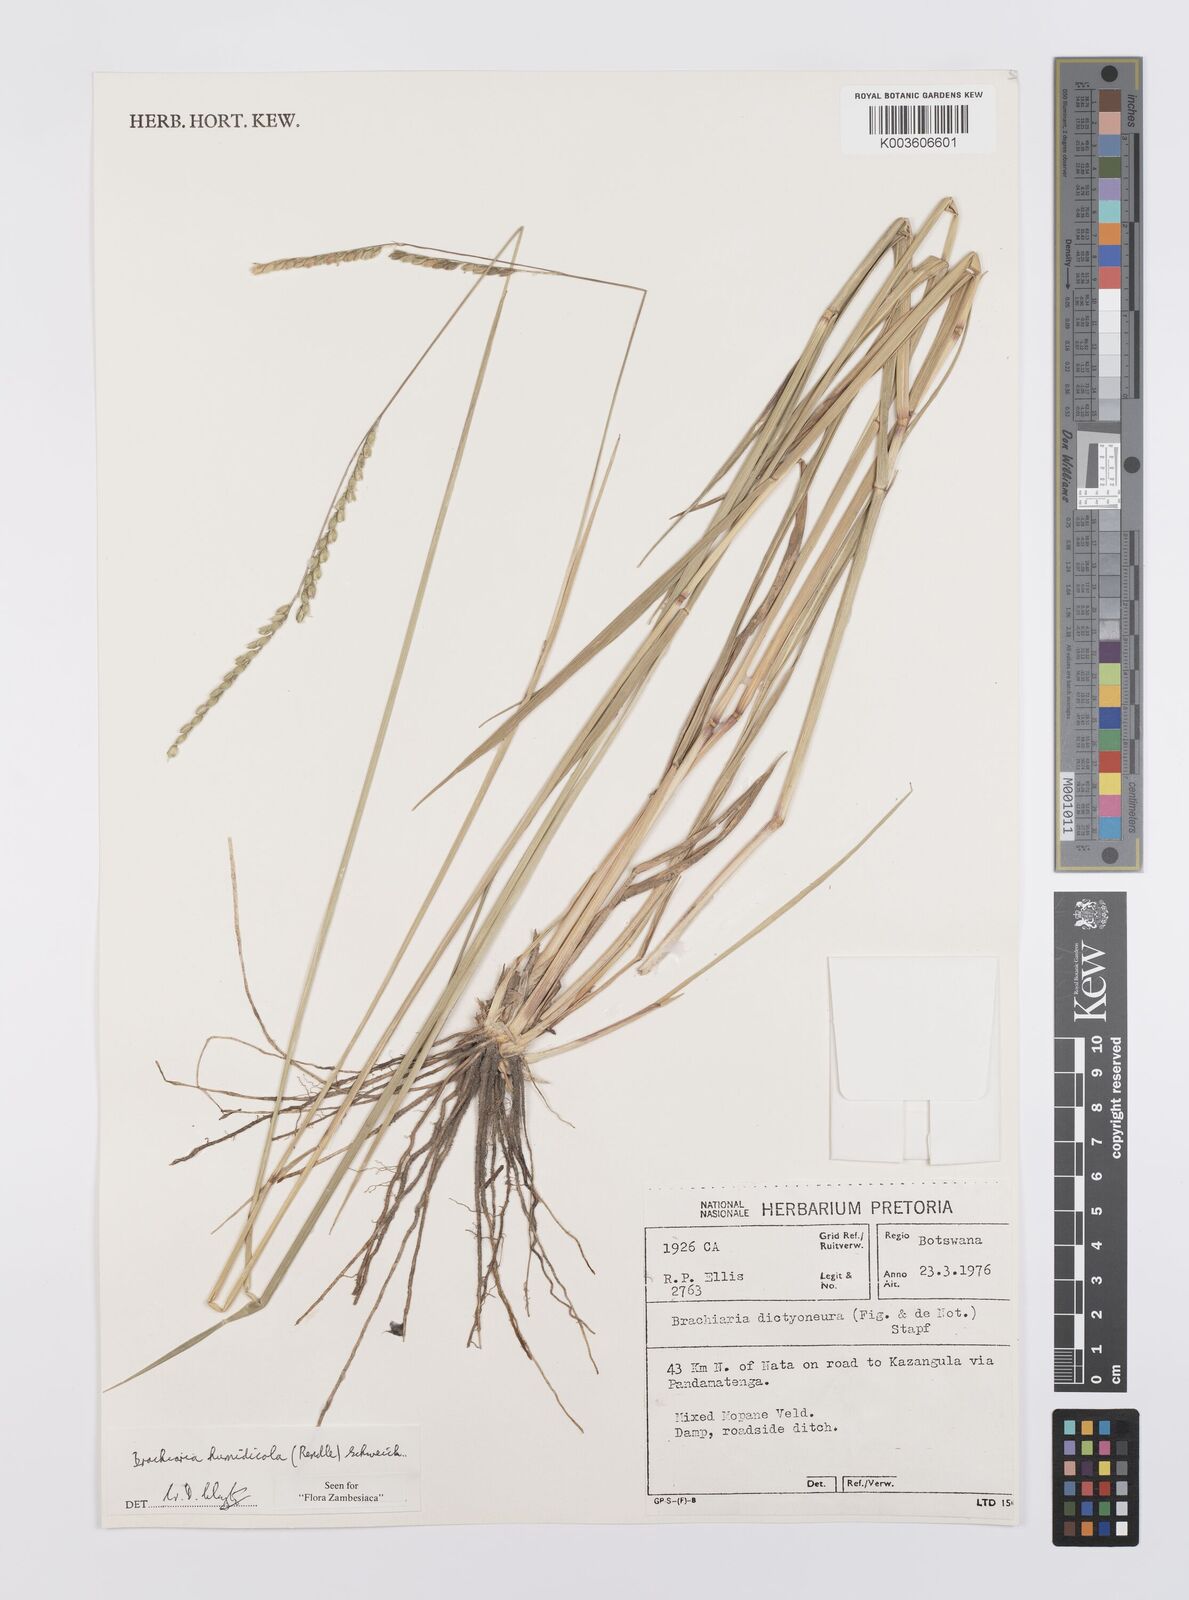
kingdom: Plantae
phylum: Tracheophyta
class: Liliopsida
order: Poales
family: Poaceae
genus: Urochloa
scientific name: Urochloa dictyoneura
